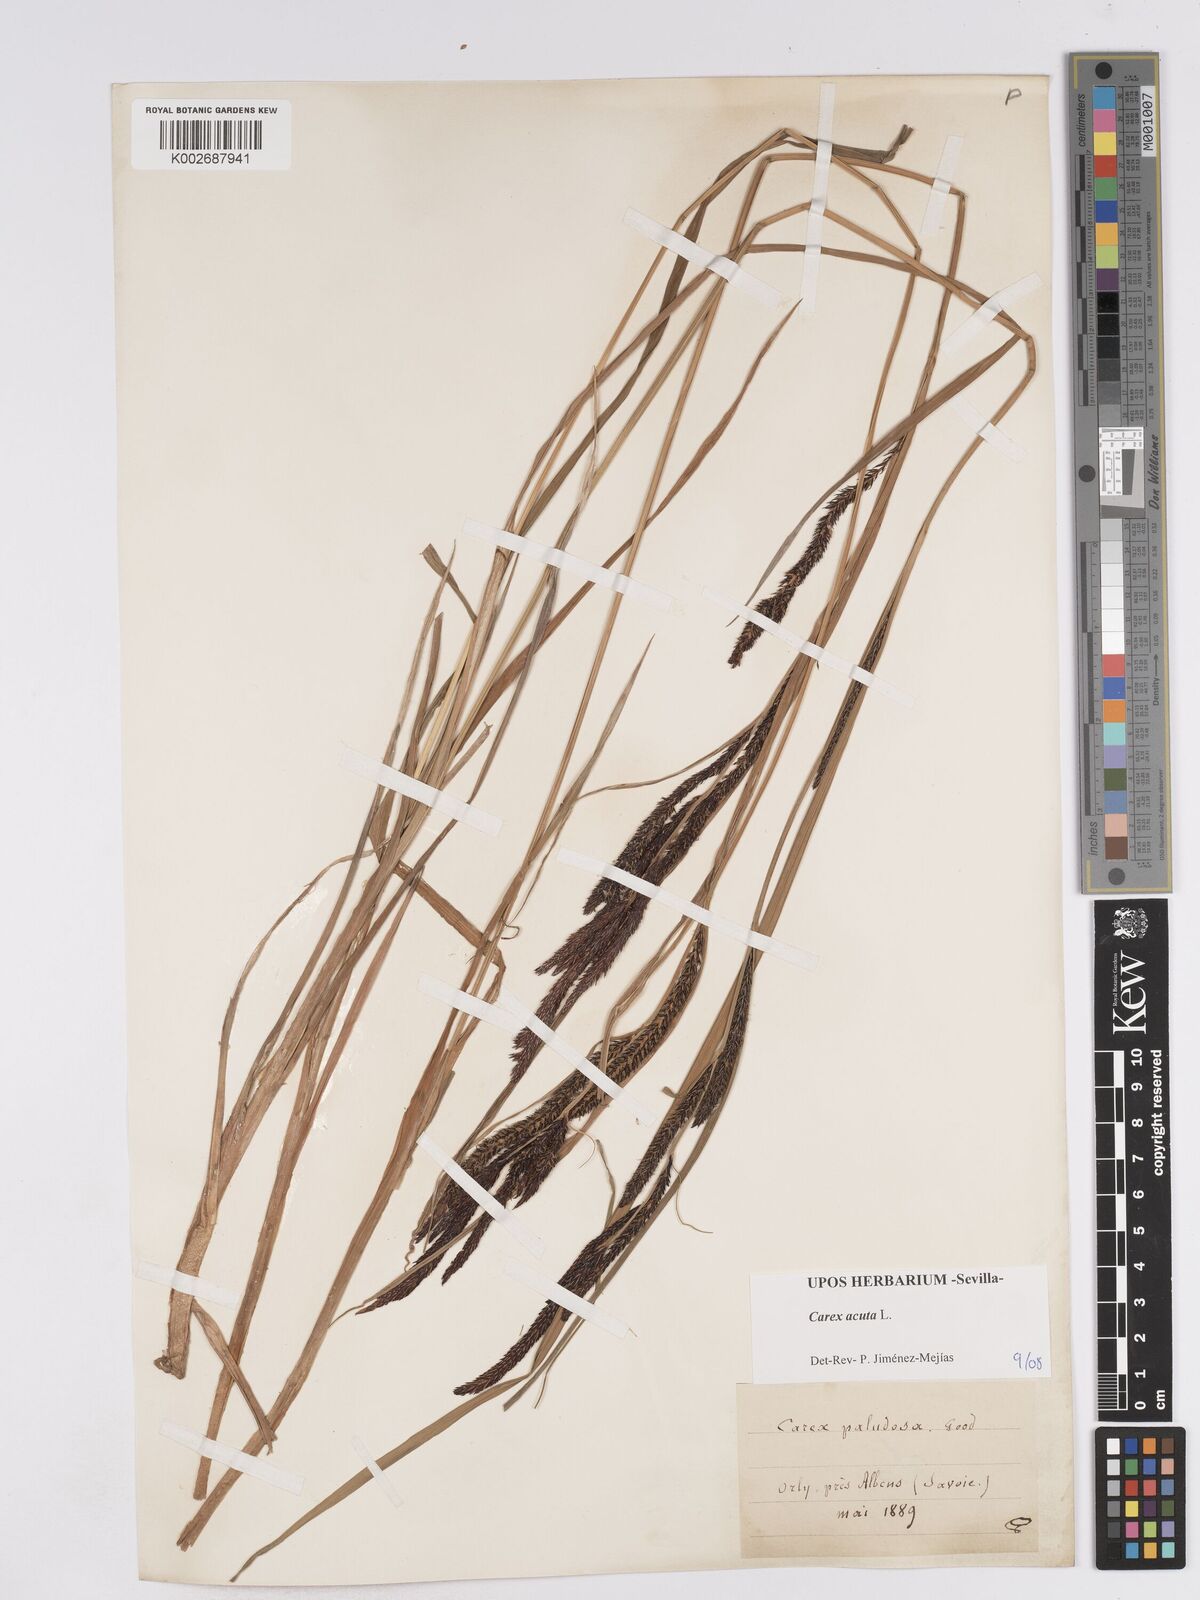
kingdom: Plantae
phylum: Tracheophyta
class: Liliopsida
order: Poales
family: Cyperaceae
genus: Carex
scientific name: Carex acuta
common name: Slender tufted-sedge
